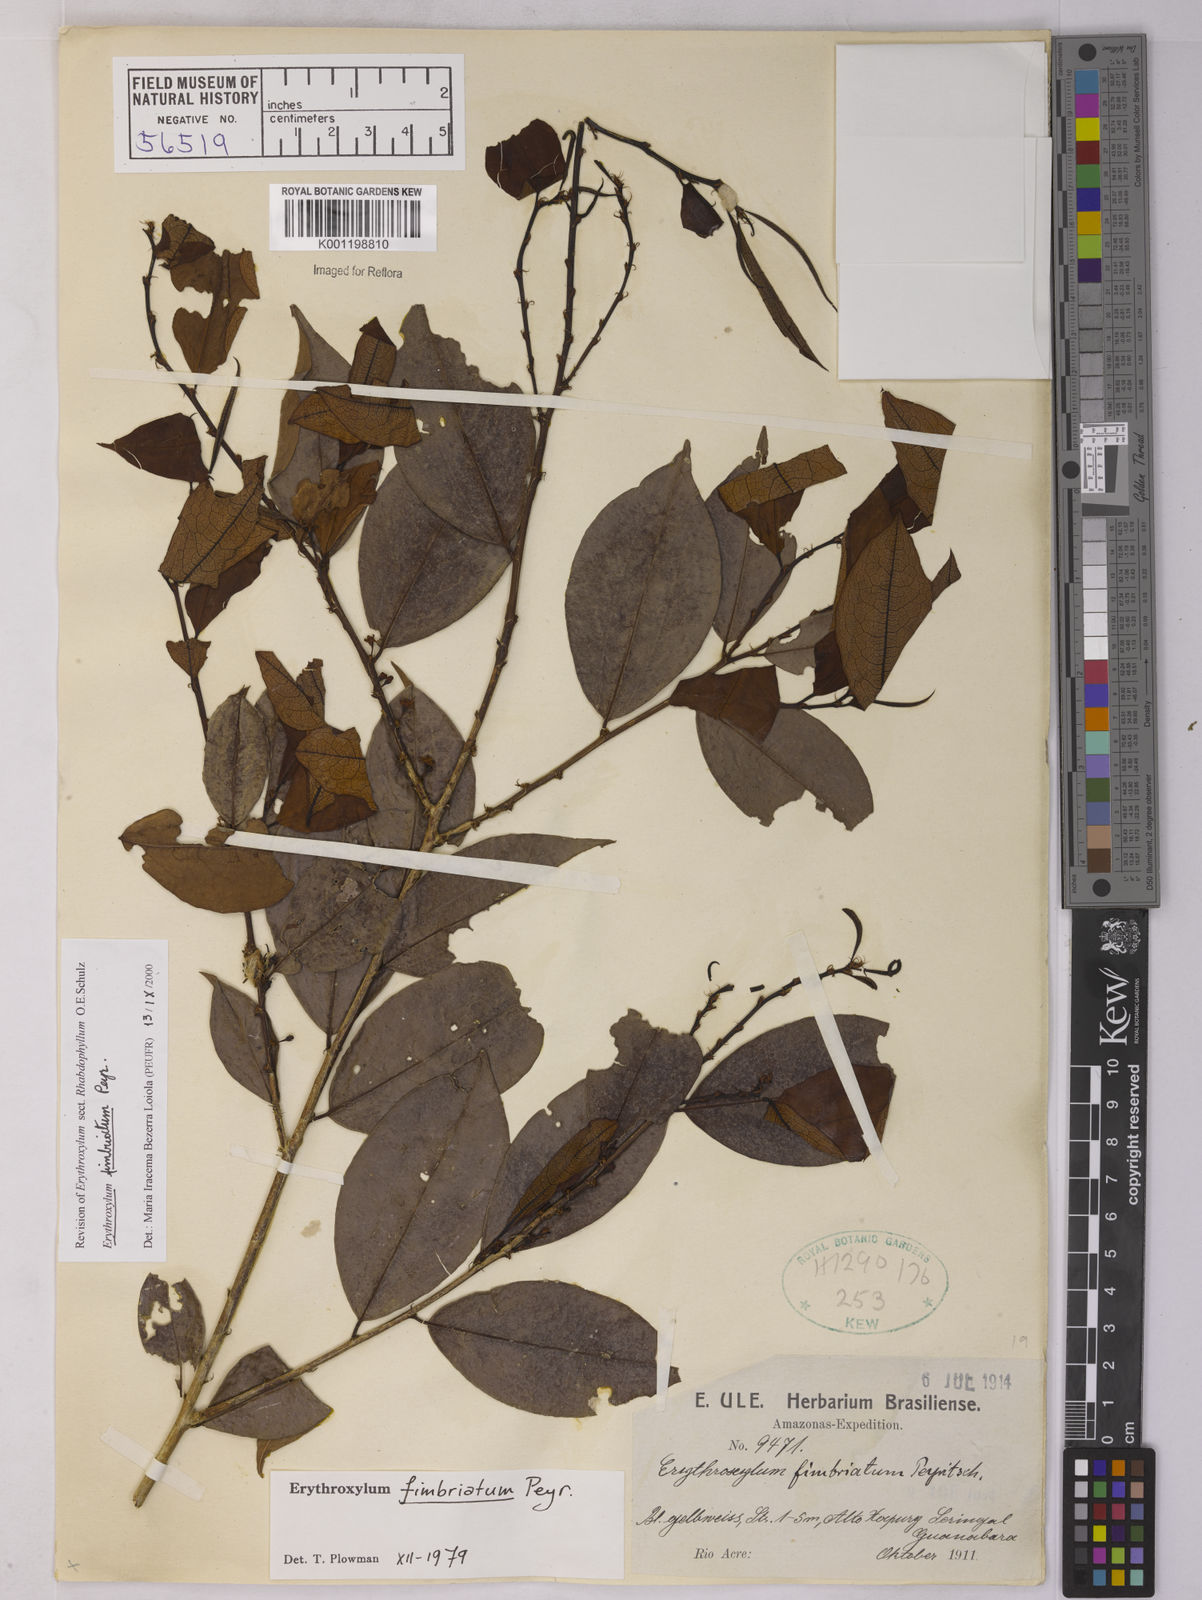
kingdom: Plantae
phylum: Tracheophyta
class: Magnoliopsida
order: Malpighiales
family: Erythroxylaceae
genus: Erythroxylum
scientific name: Erythroxylum fimbriatum
